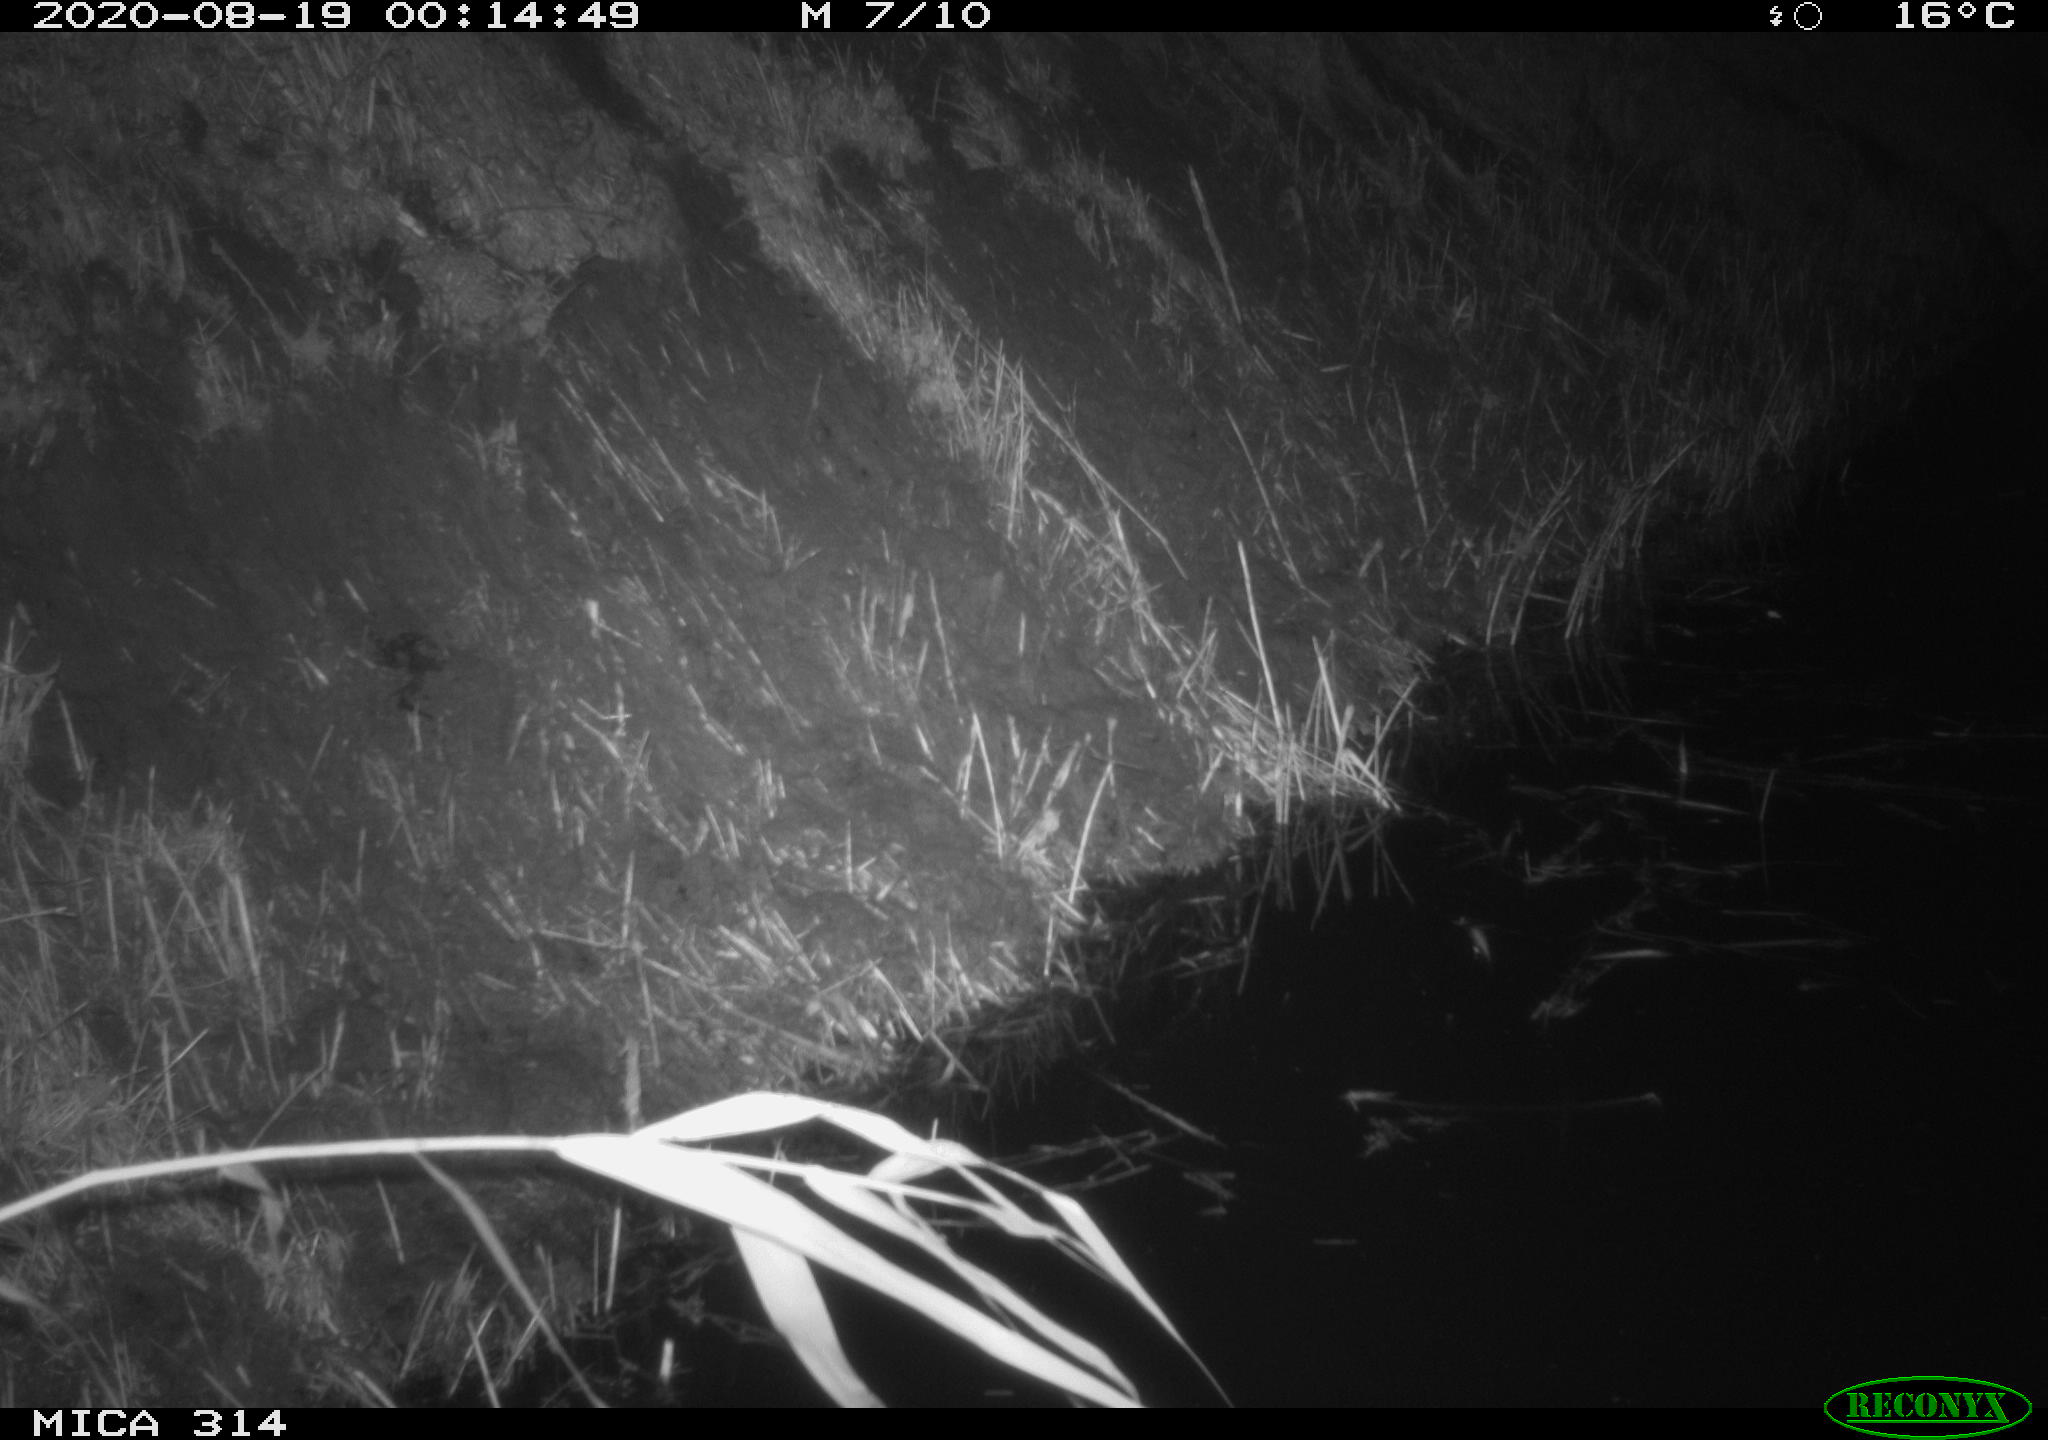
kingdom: Animalia
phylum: Chordata
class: Mammalia
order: Rodentia
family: Muridae
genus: Rattus
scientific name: Rattus norvegicus
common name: Brown rat
